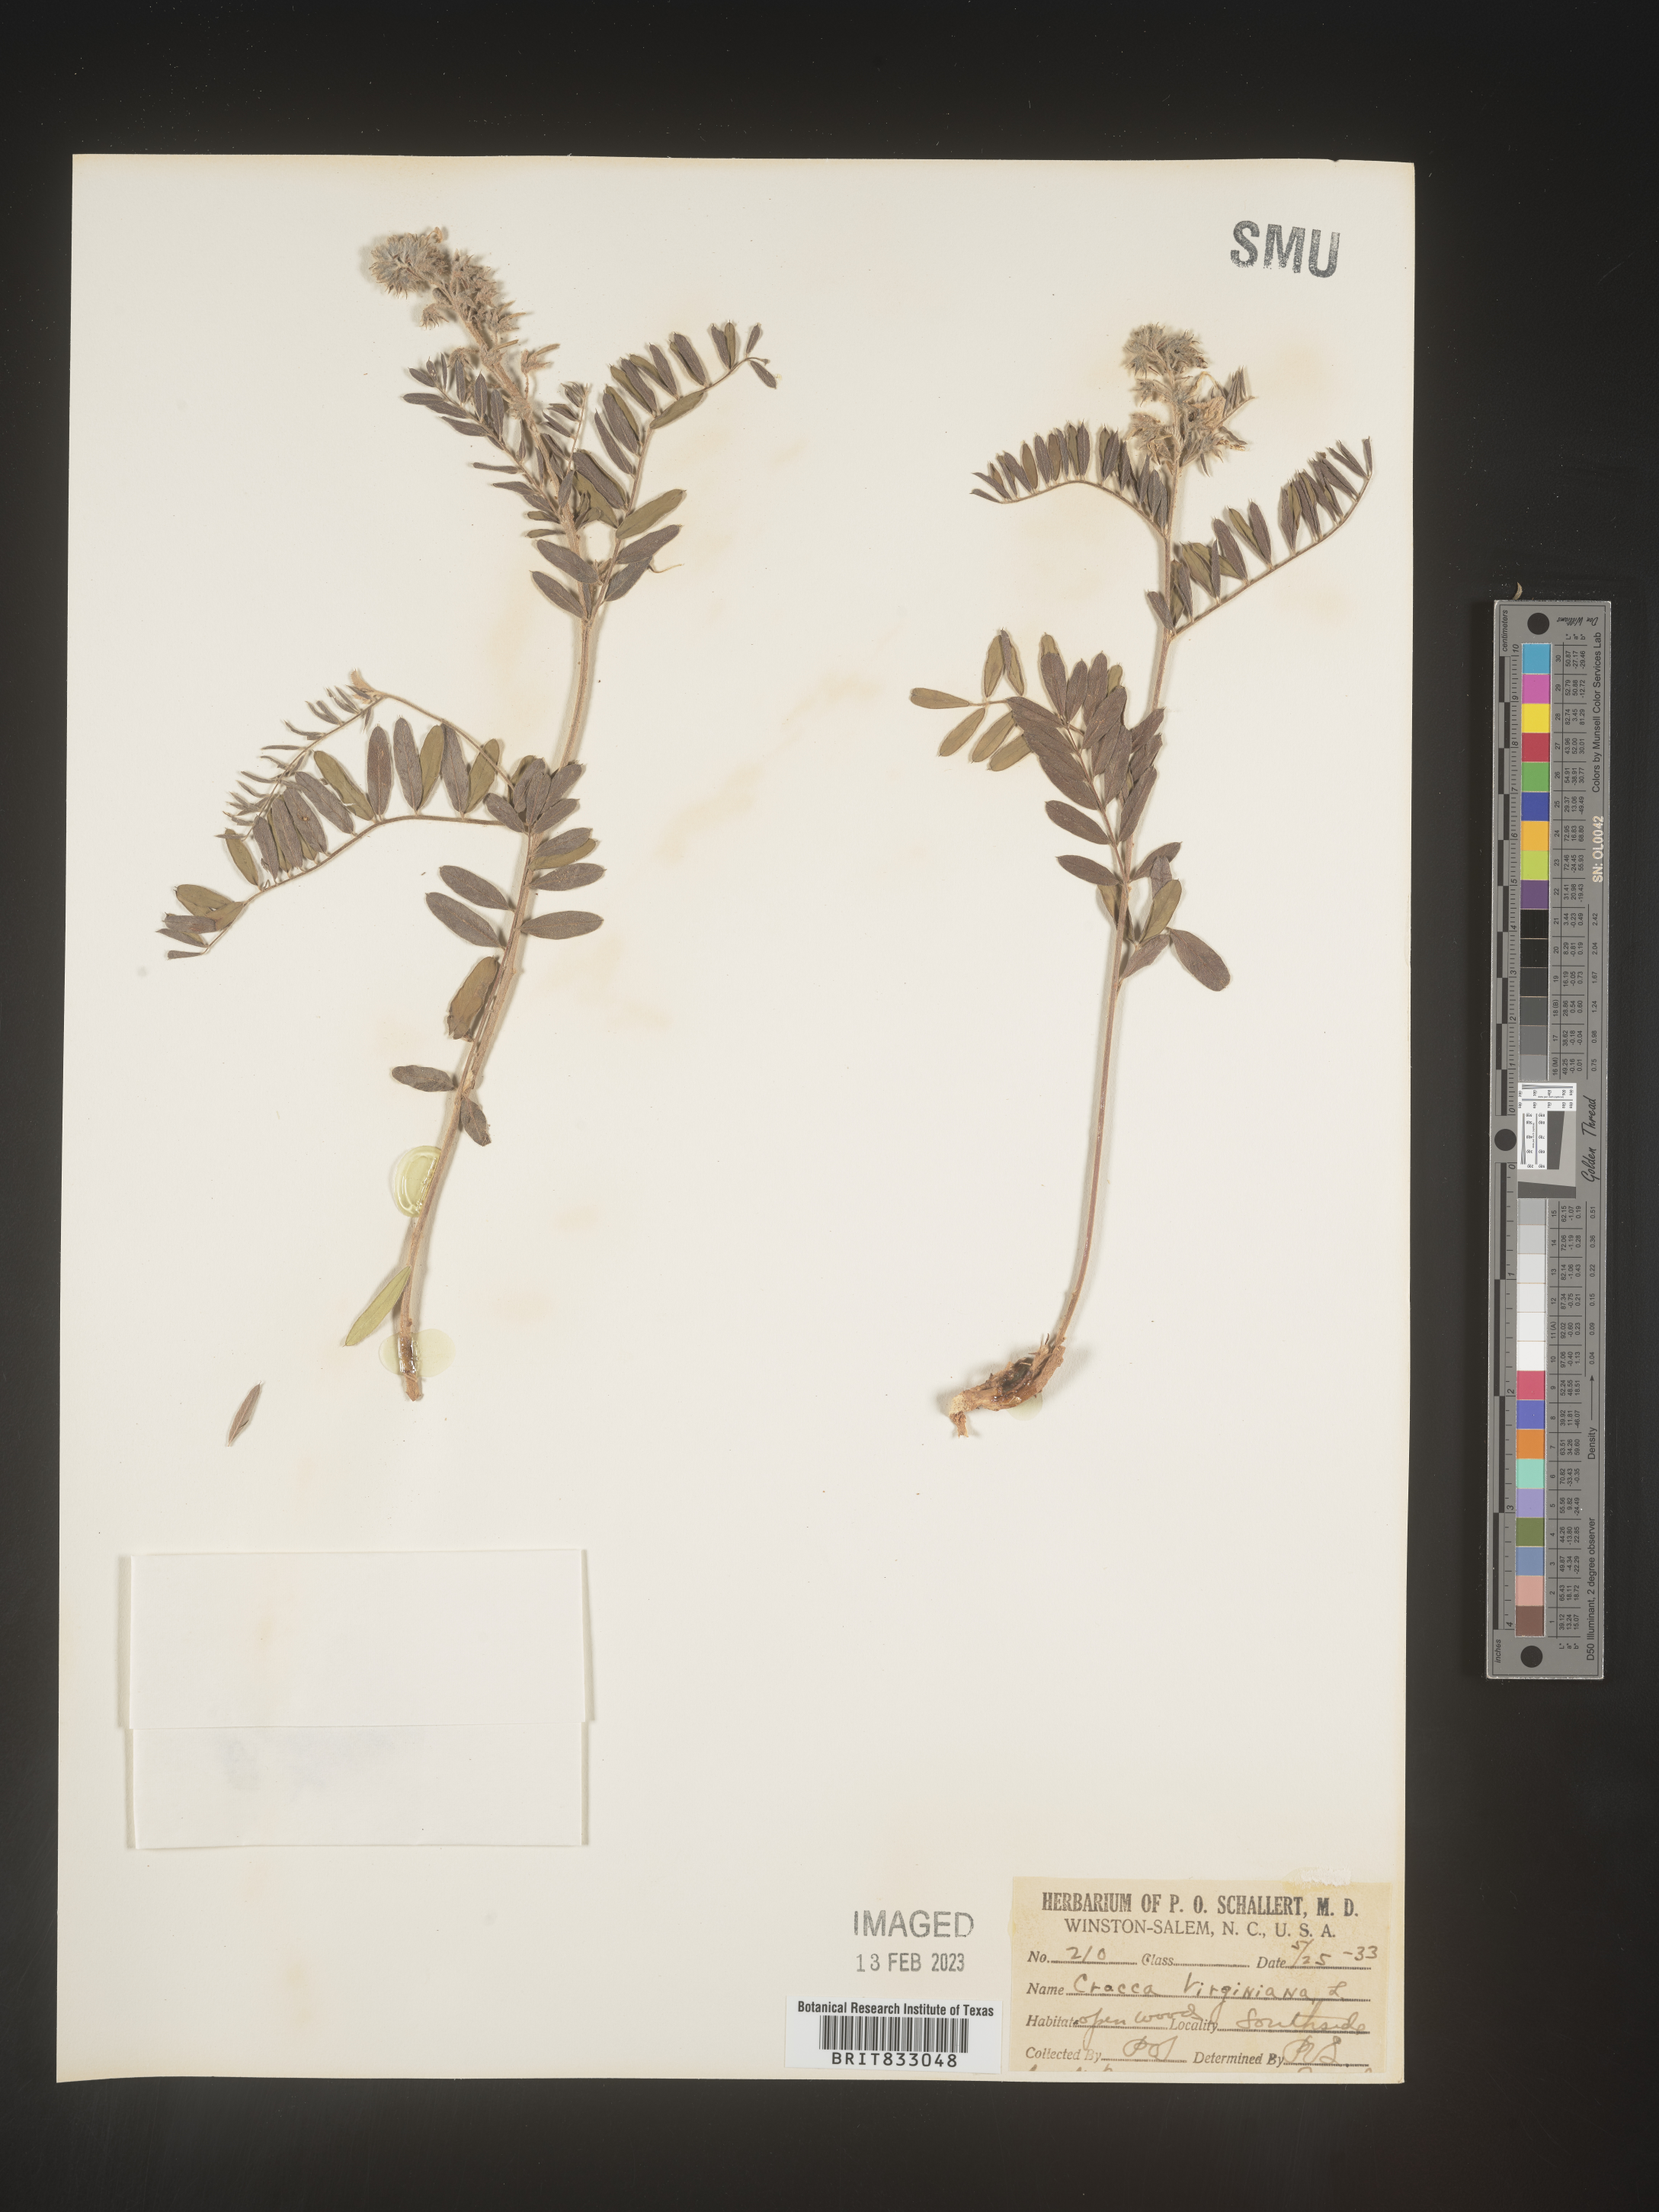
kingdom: Plantae
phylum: Tracheophyta
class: Magnoliopsida
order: Fabales
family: Fabaceae
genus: Tephrosia
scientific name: Tephrosia virginiana
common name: Rabbit-pea
